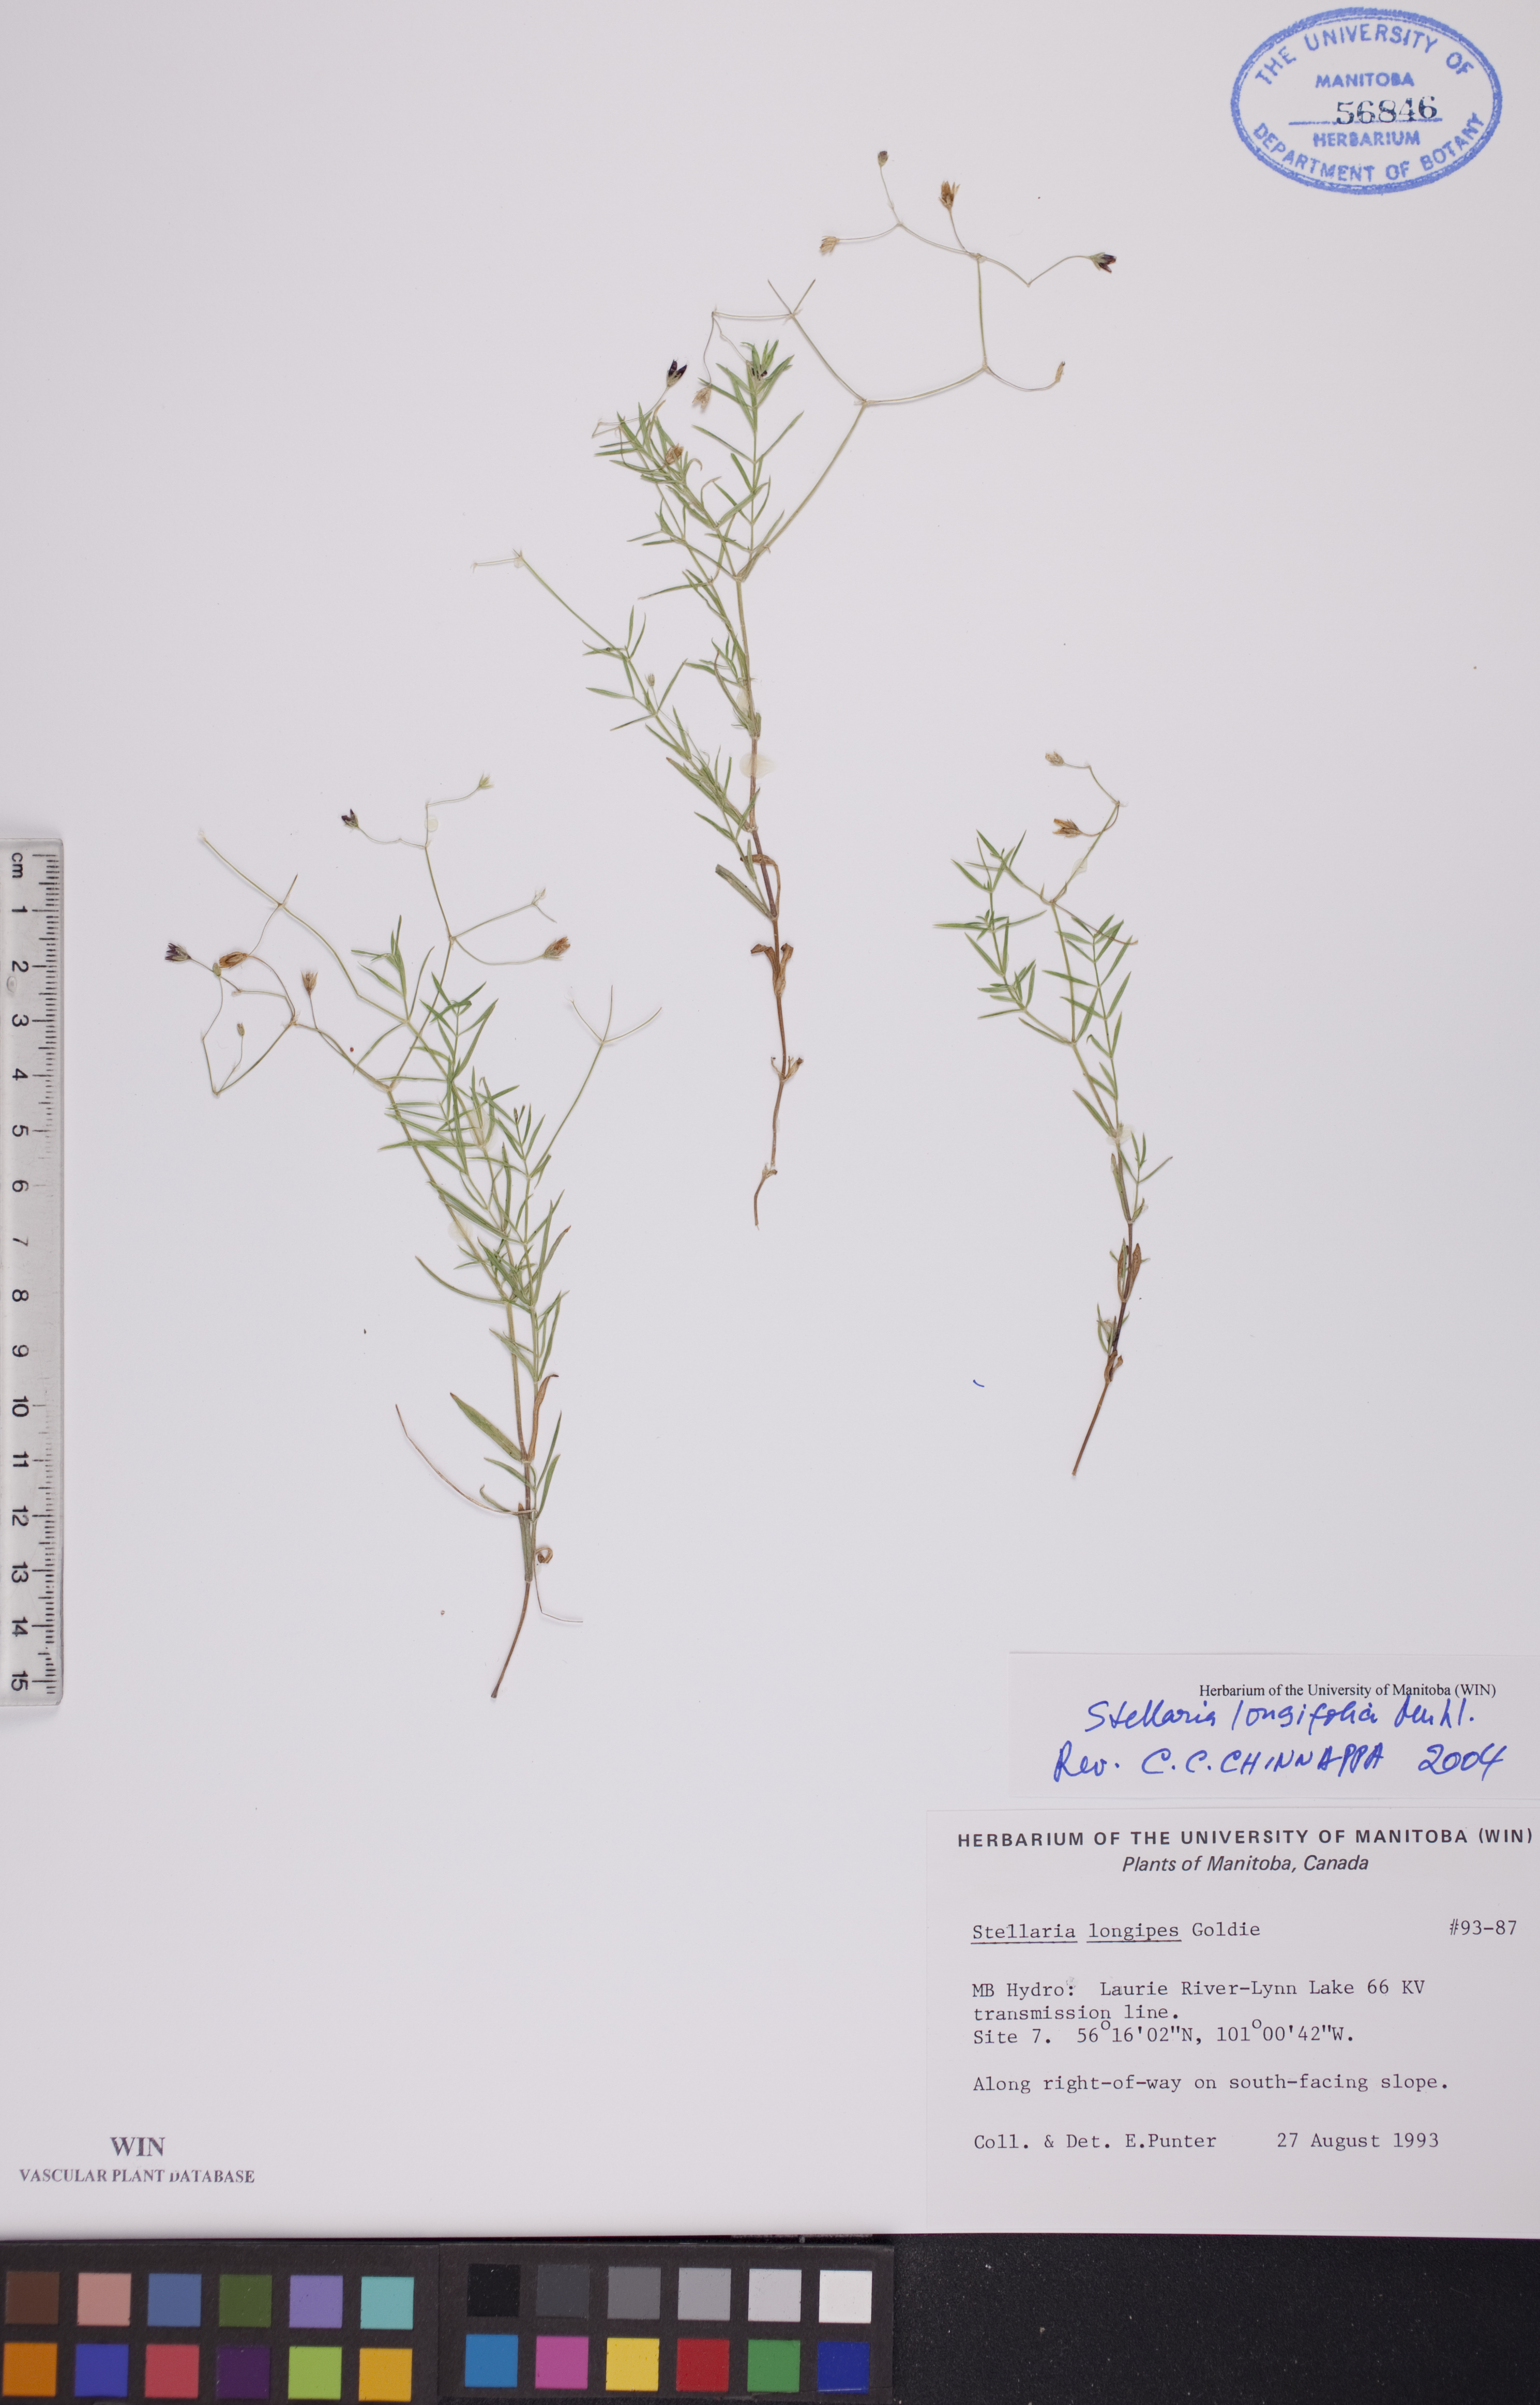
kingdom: Plantae
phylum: Tracheophyta
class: Magnoliopsida
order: Caryophyllales
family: Caryophyllaceae
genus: Stellaria
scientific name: Stellaria longifolia
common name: Long-leaved chickweed
